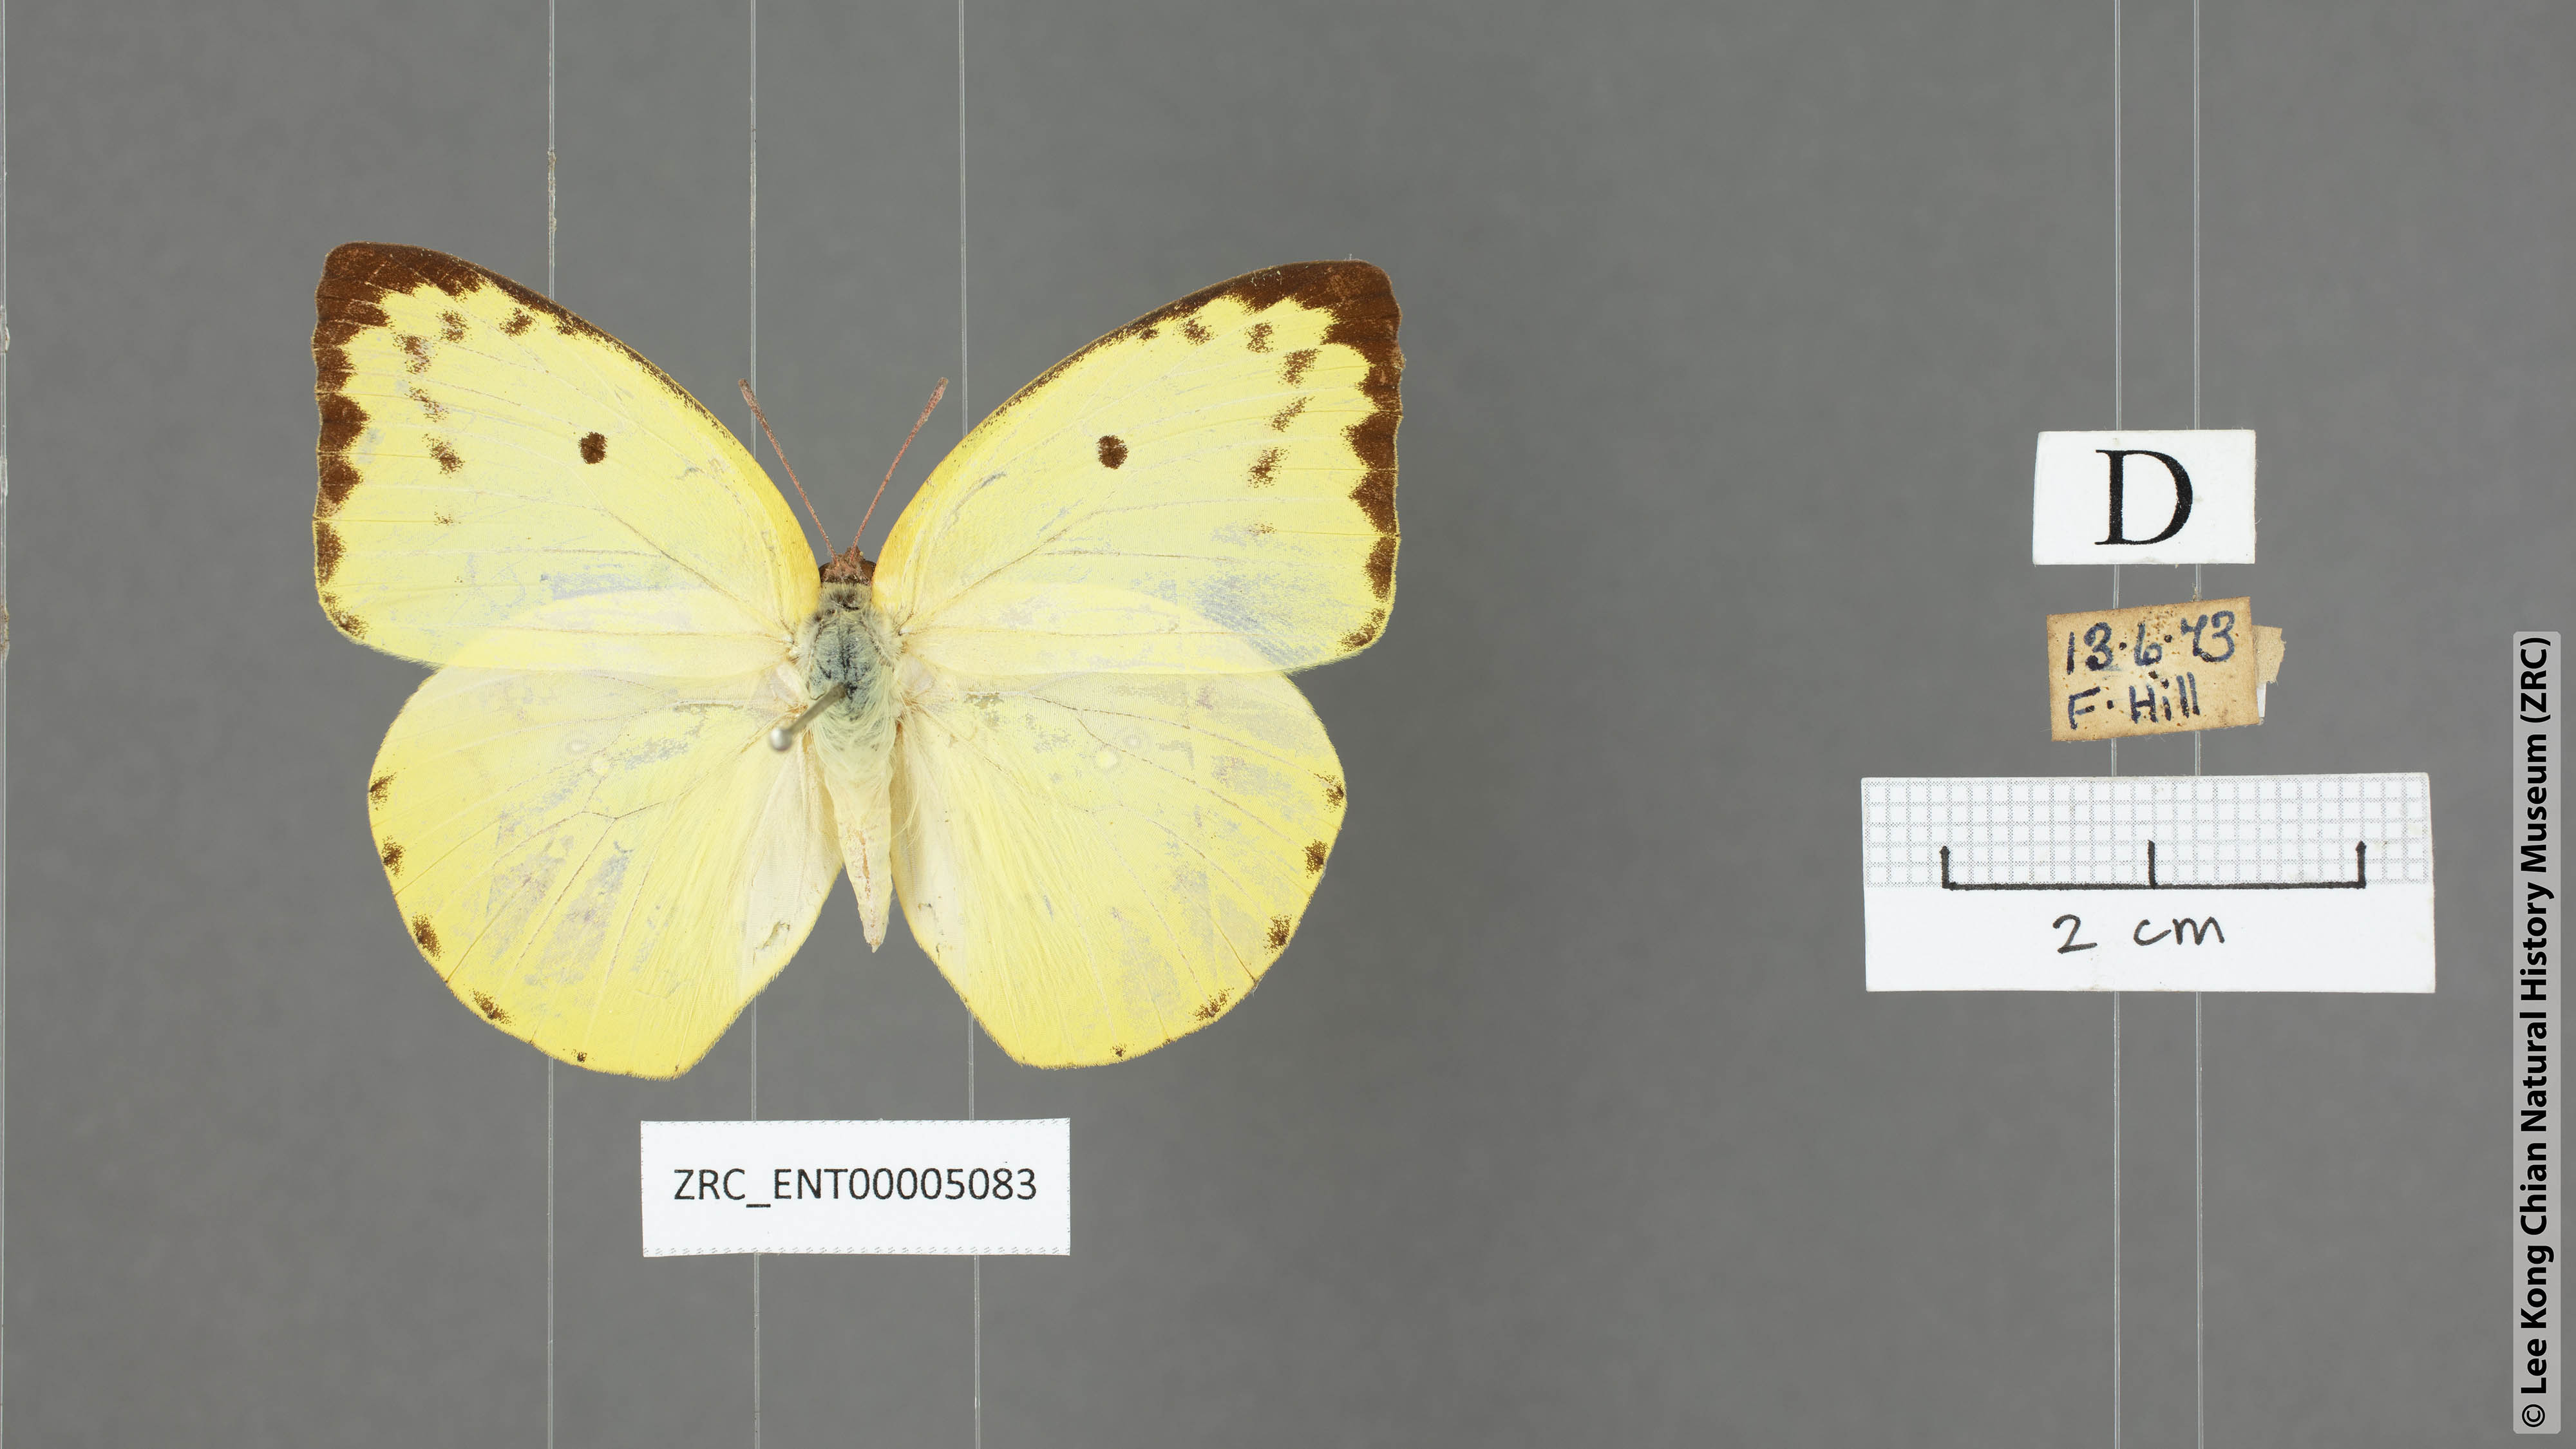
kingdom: Animalia
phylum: Arthropoda
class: Insecta
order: Lepidoptera
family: Pieridae
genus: Catopsilia
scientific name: Catopsilia pomona
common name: Common emigrant
